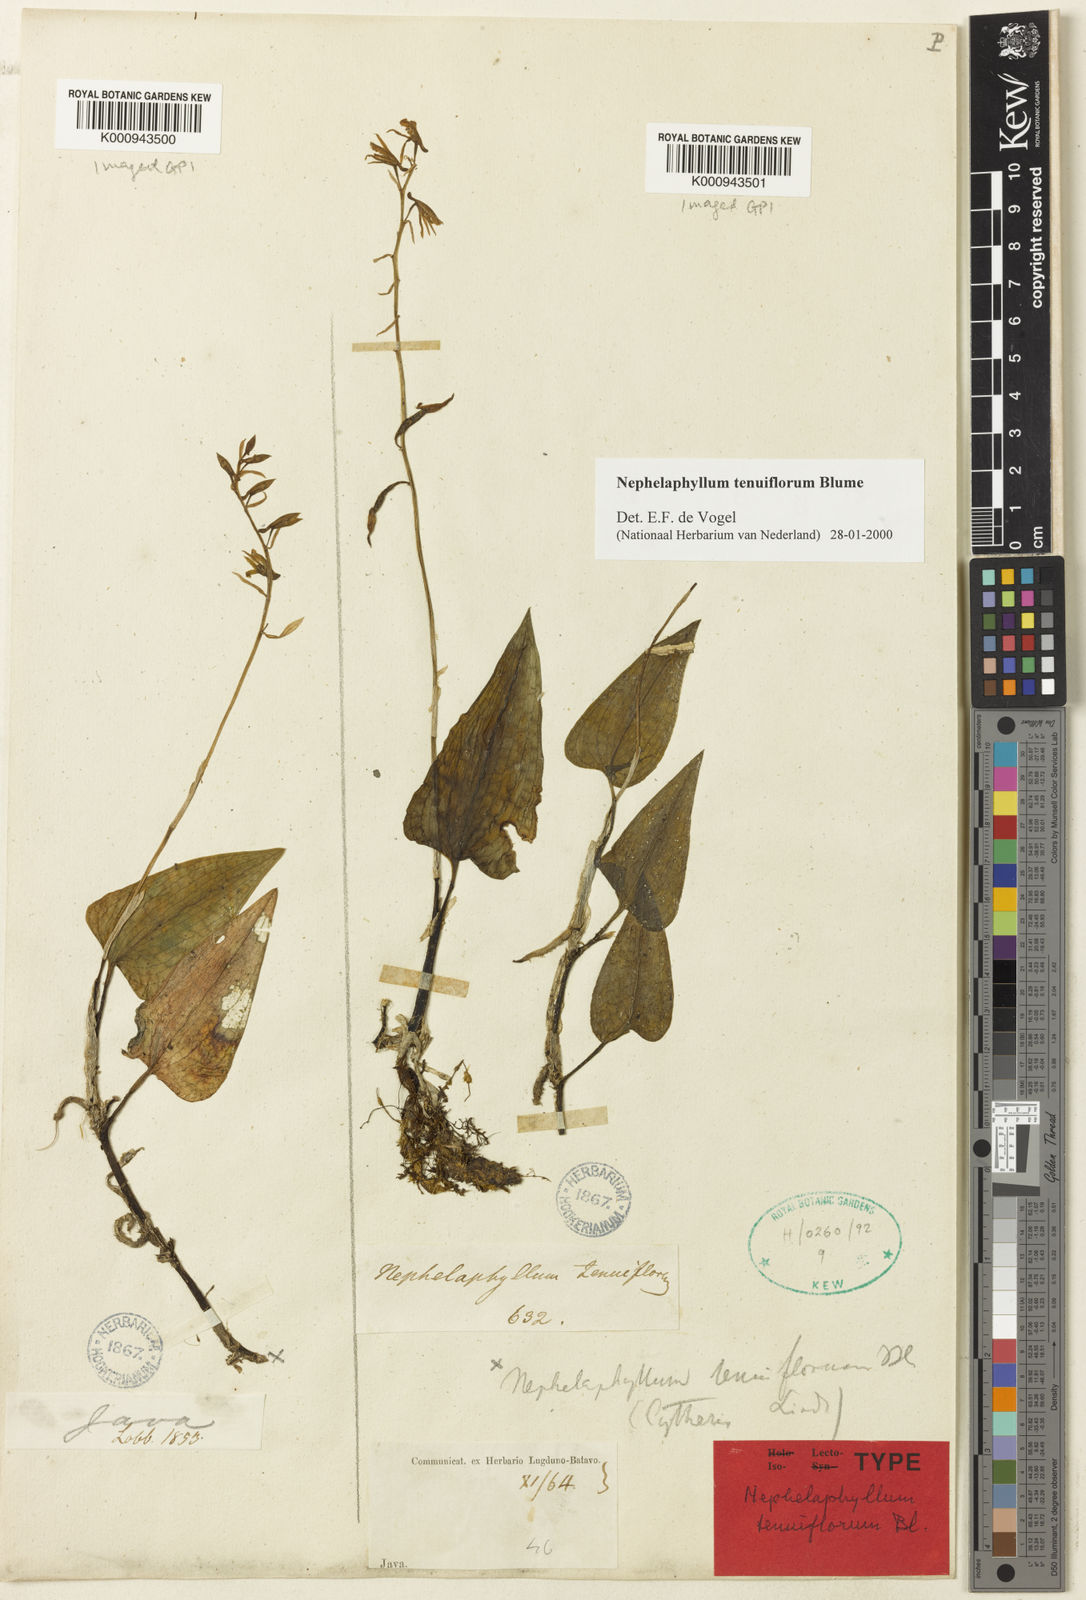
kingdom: Plantae
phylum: Tracheophyta
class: Liliopsida
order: Asparagales
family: Orchidaceae
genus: Nephelaphyllum
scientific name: Nephelaphyllum tenuiflorum
